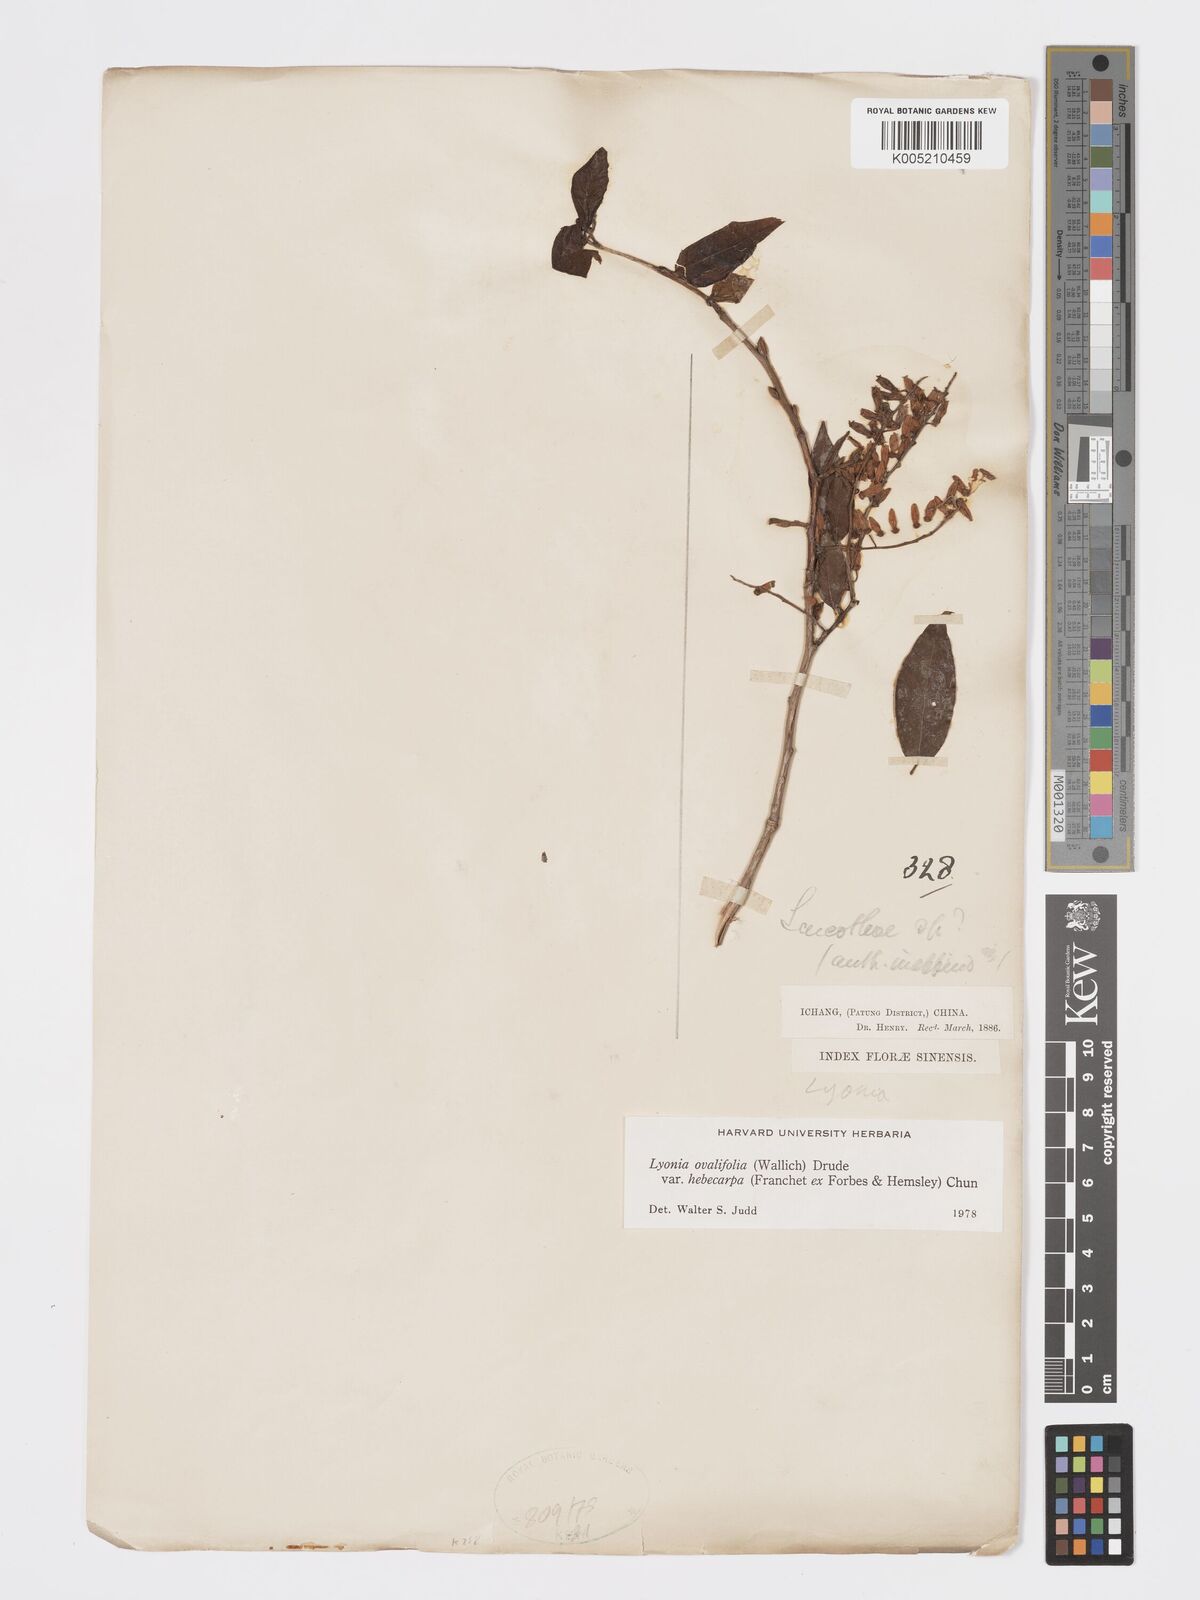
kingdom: Plantae
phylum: Tracheophyta
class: Magnoliopsida
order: Ericales
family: Ericaceae
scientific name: Ericaceae
